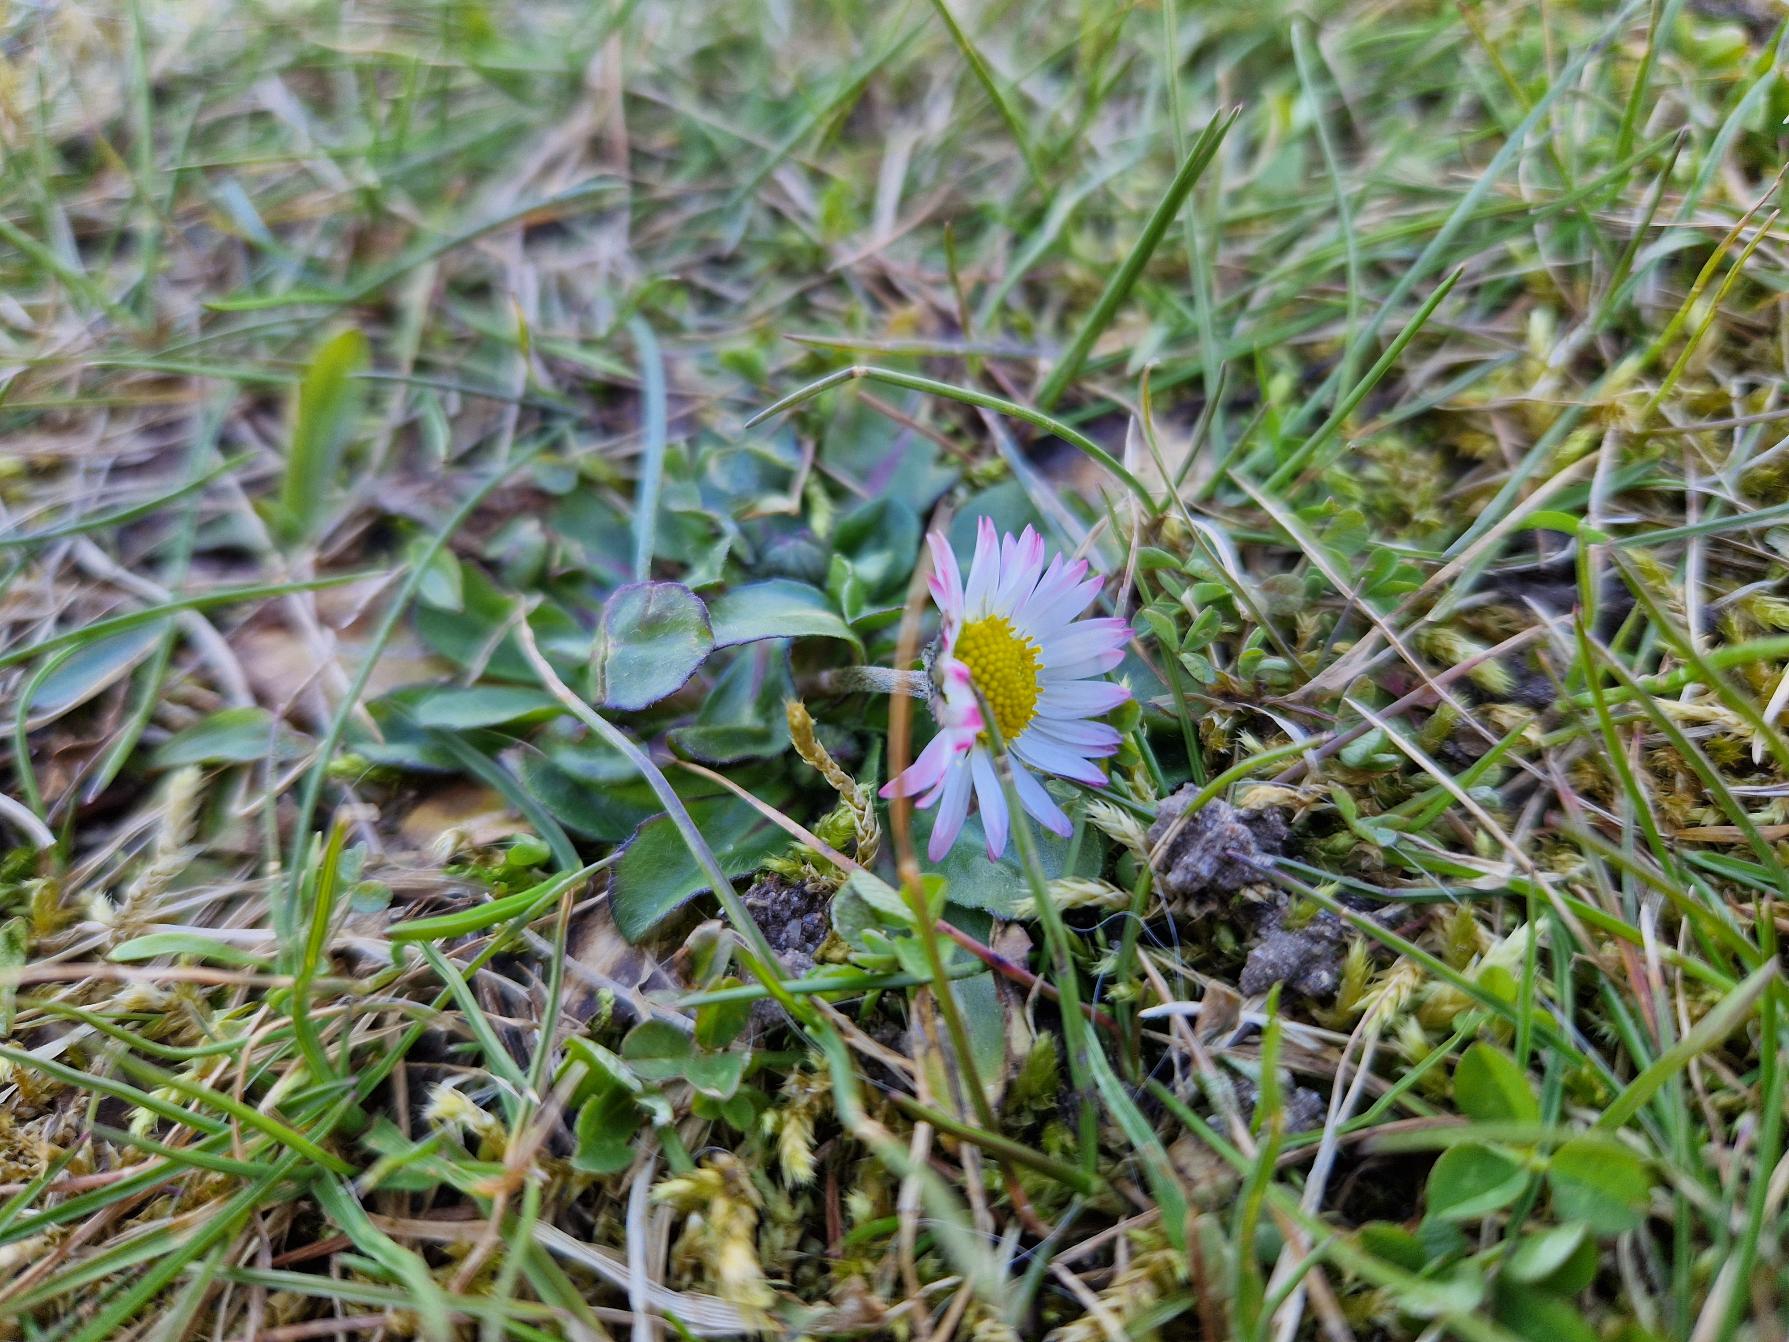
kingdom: Plantae
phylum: Tracheophyta
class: Magnoliopsida
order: Asterales
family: Asteraceae
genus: Bellis
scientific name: Bellis perennis
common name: Tusindfryd
